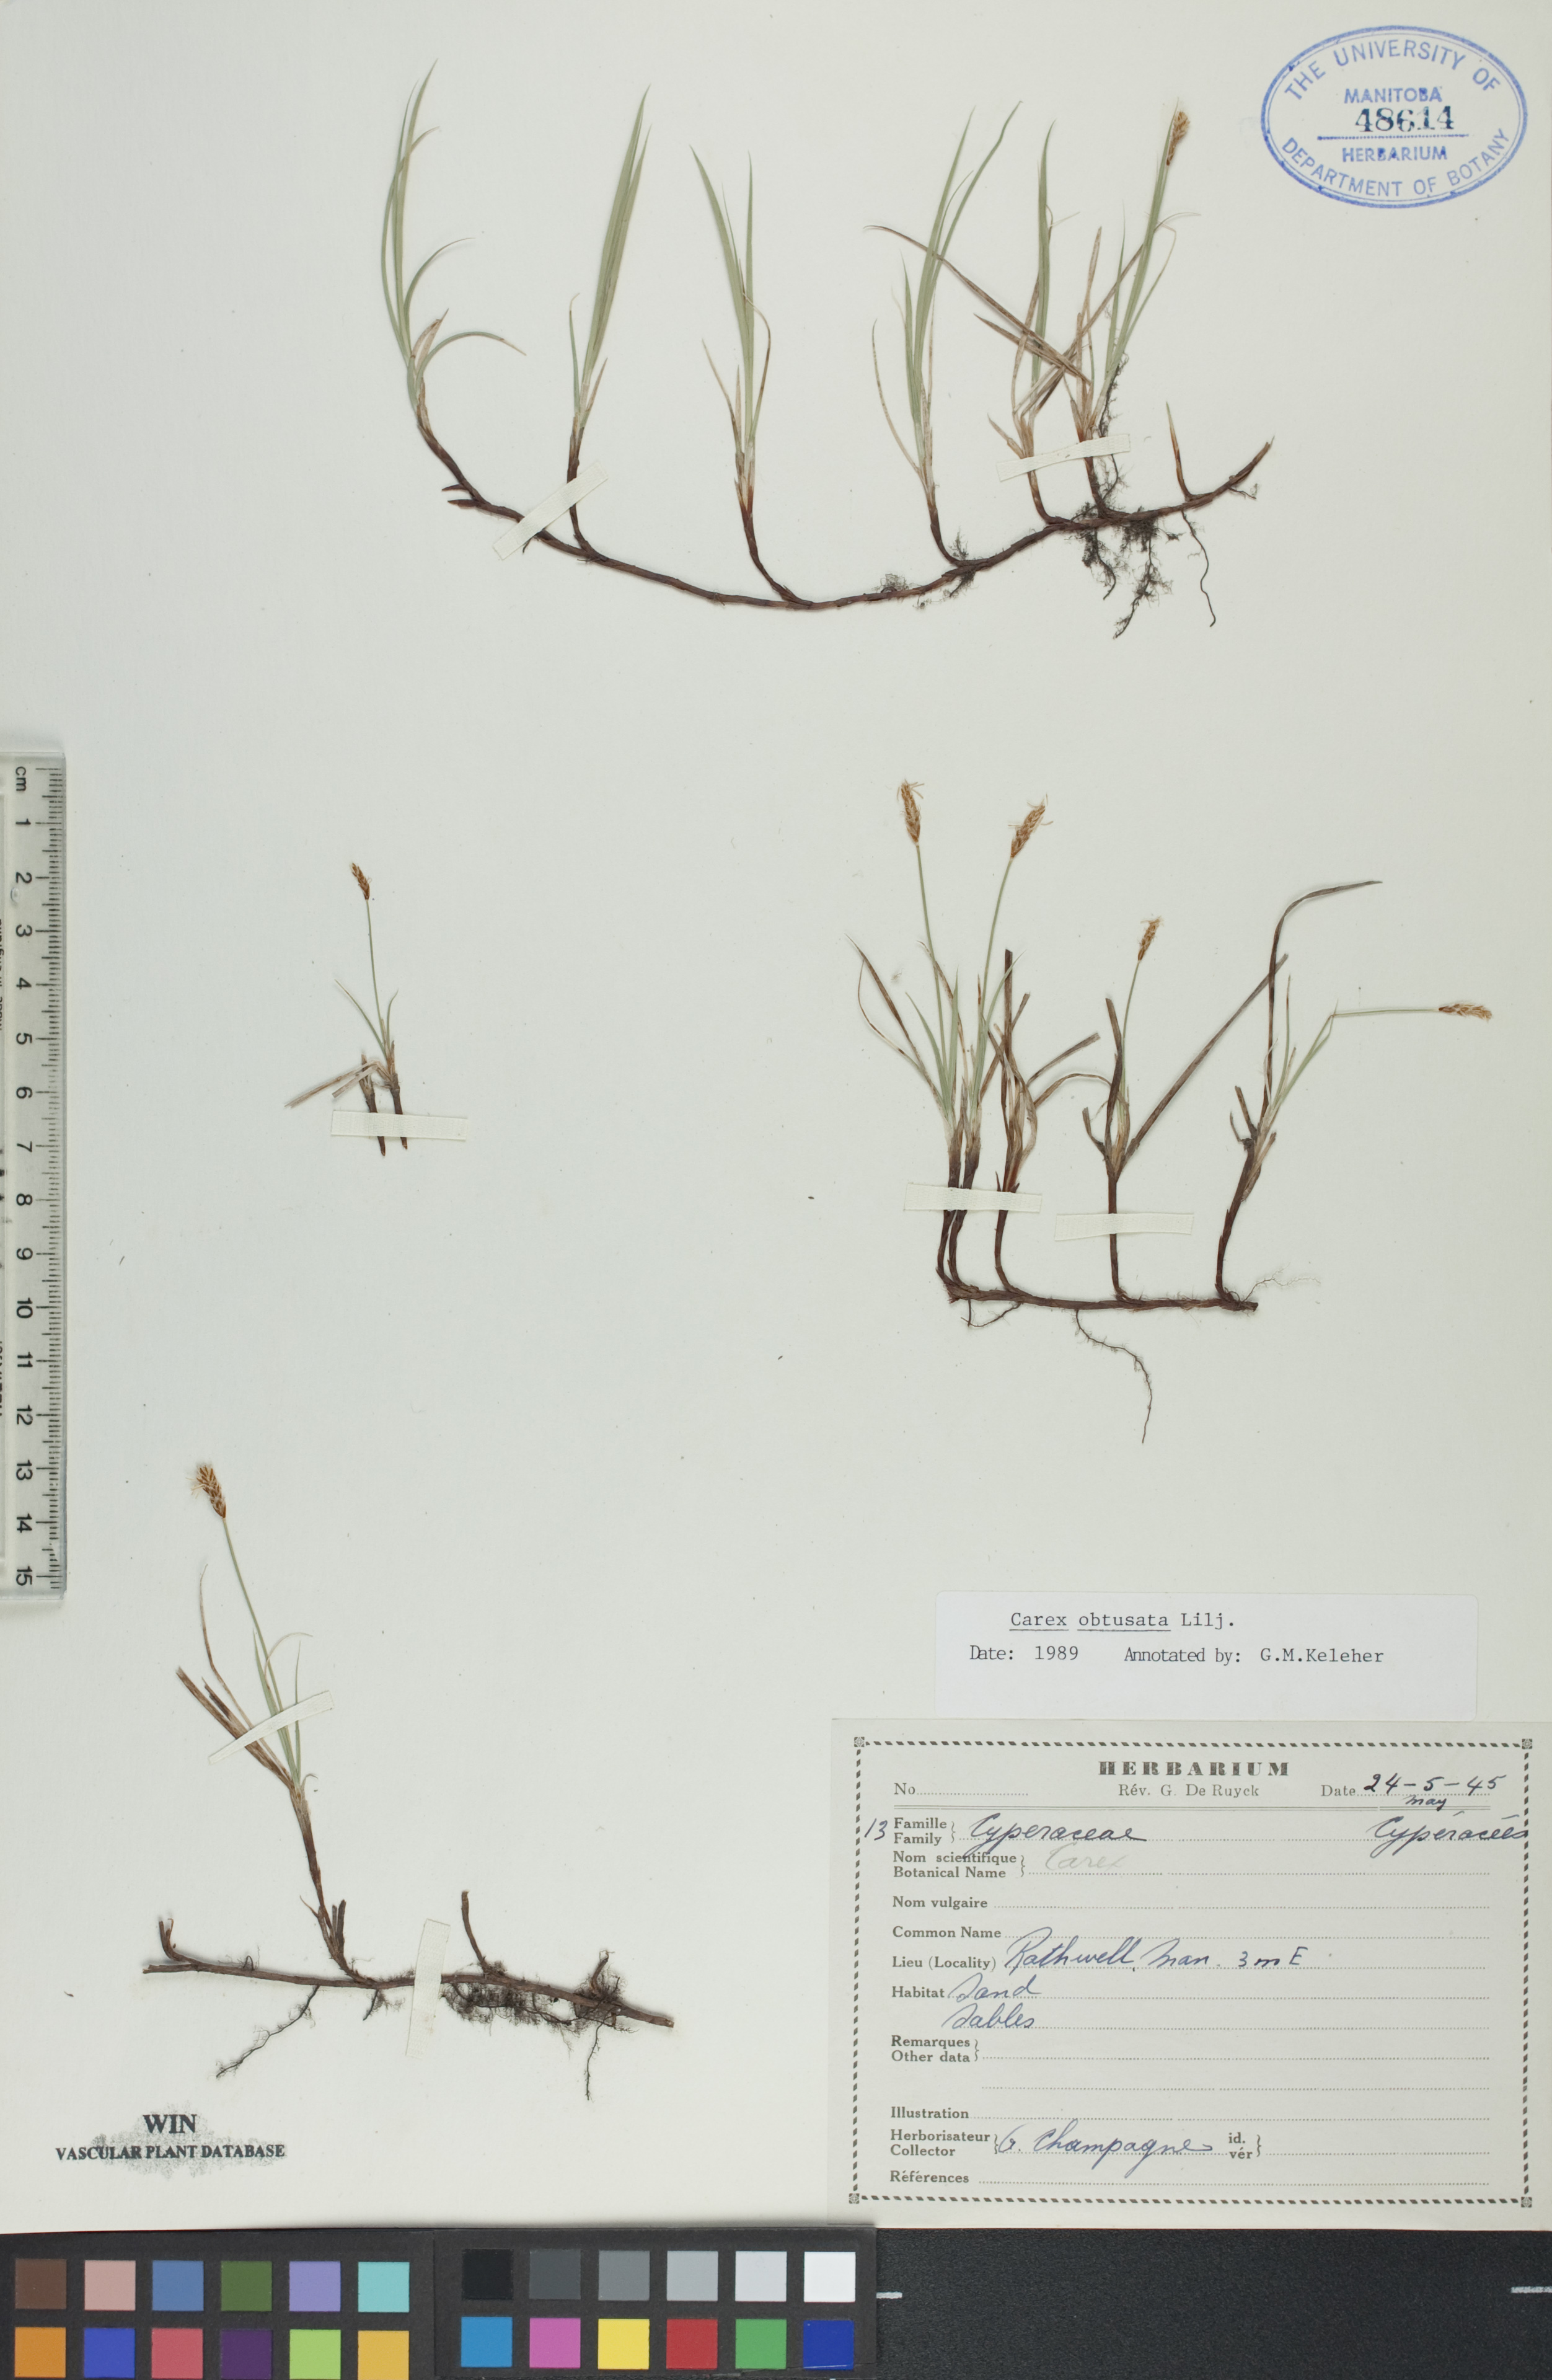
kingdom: Plantae
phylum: Tracheophyta
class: Liliopsida
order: Poales
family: Cyperaceae
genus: Carex
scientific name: Carex obtusata
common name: Blunt sedge
